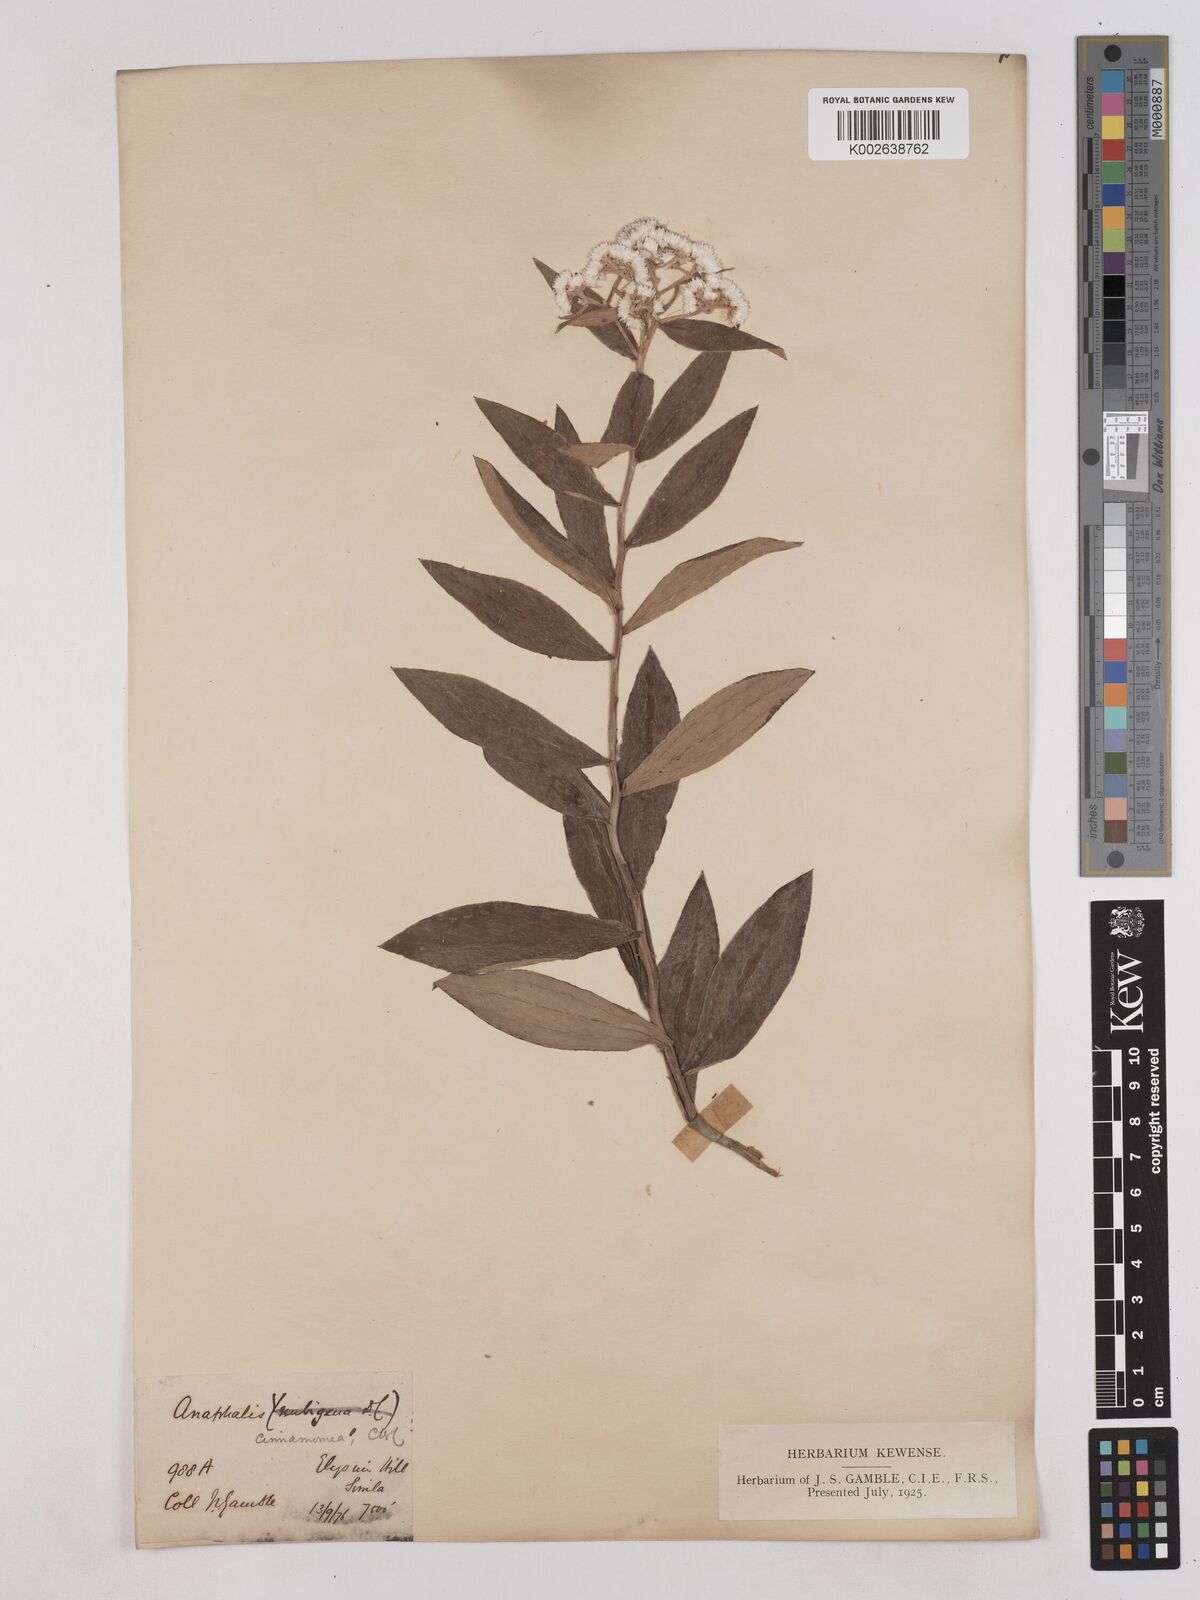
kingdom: Plantae
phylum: Tracheophyta
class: Magnoliopsida
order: Asterales
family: Asteraceae
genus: Anaphalis
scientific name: Anaphalis marcescens
